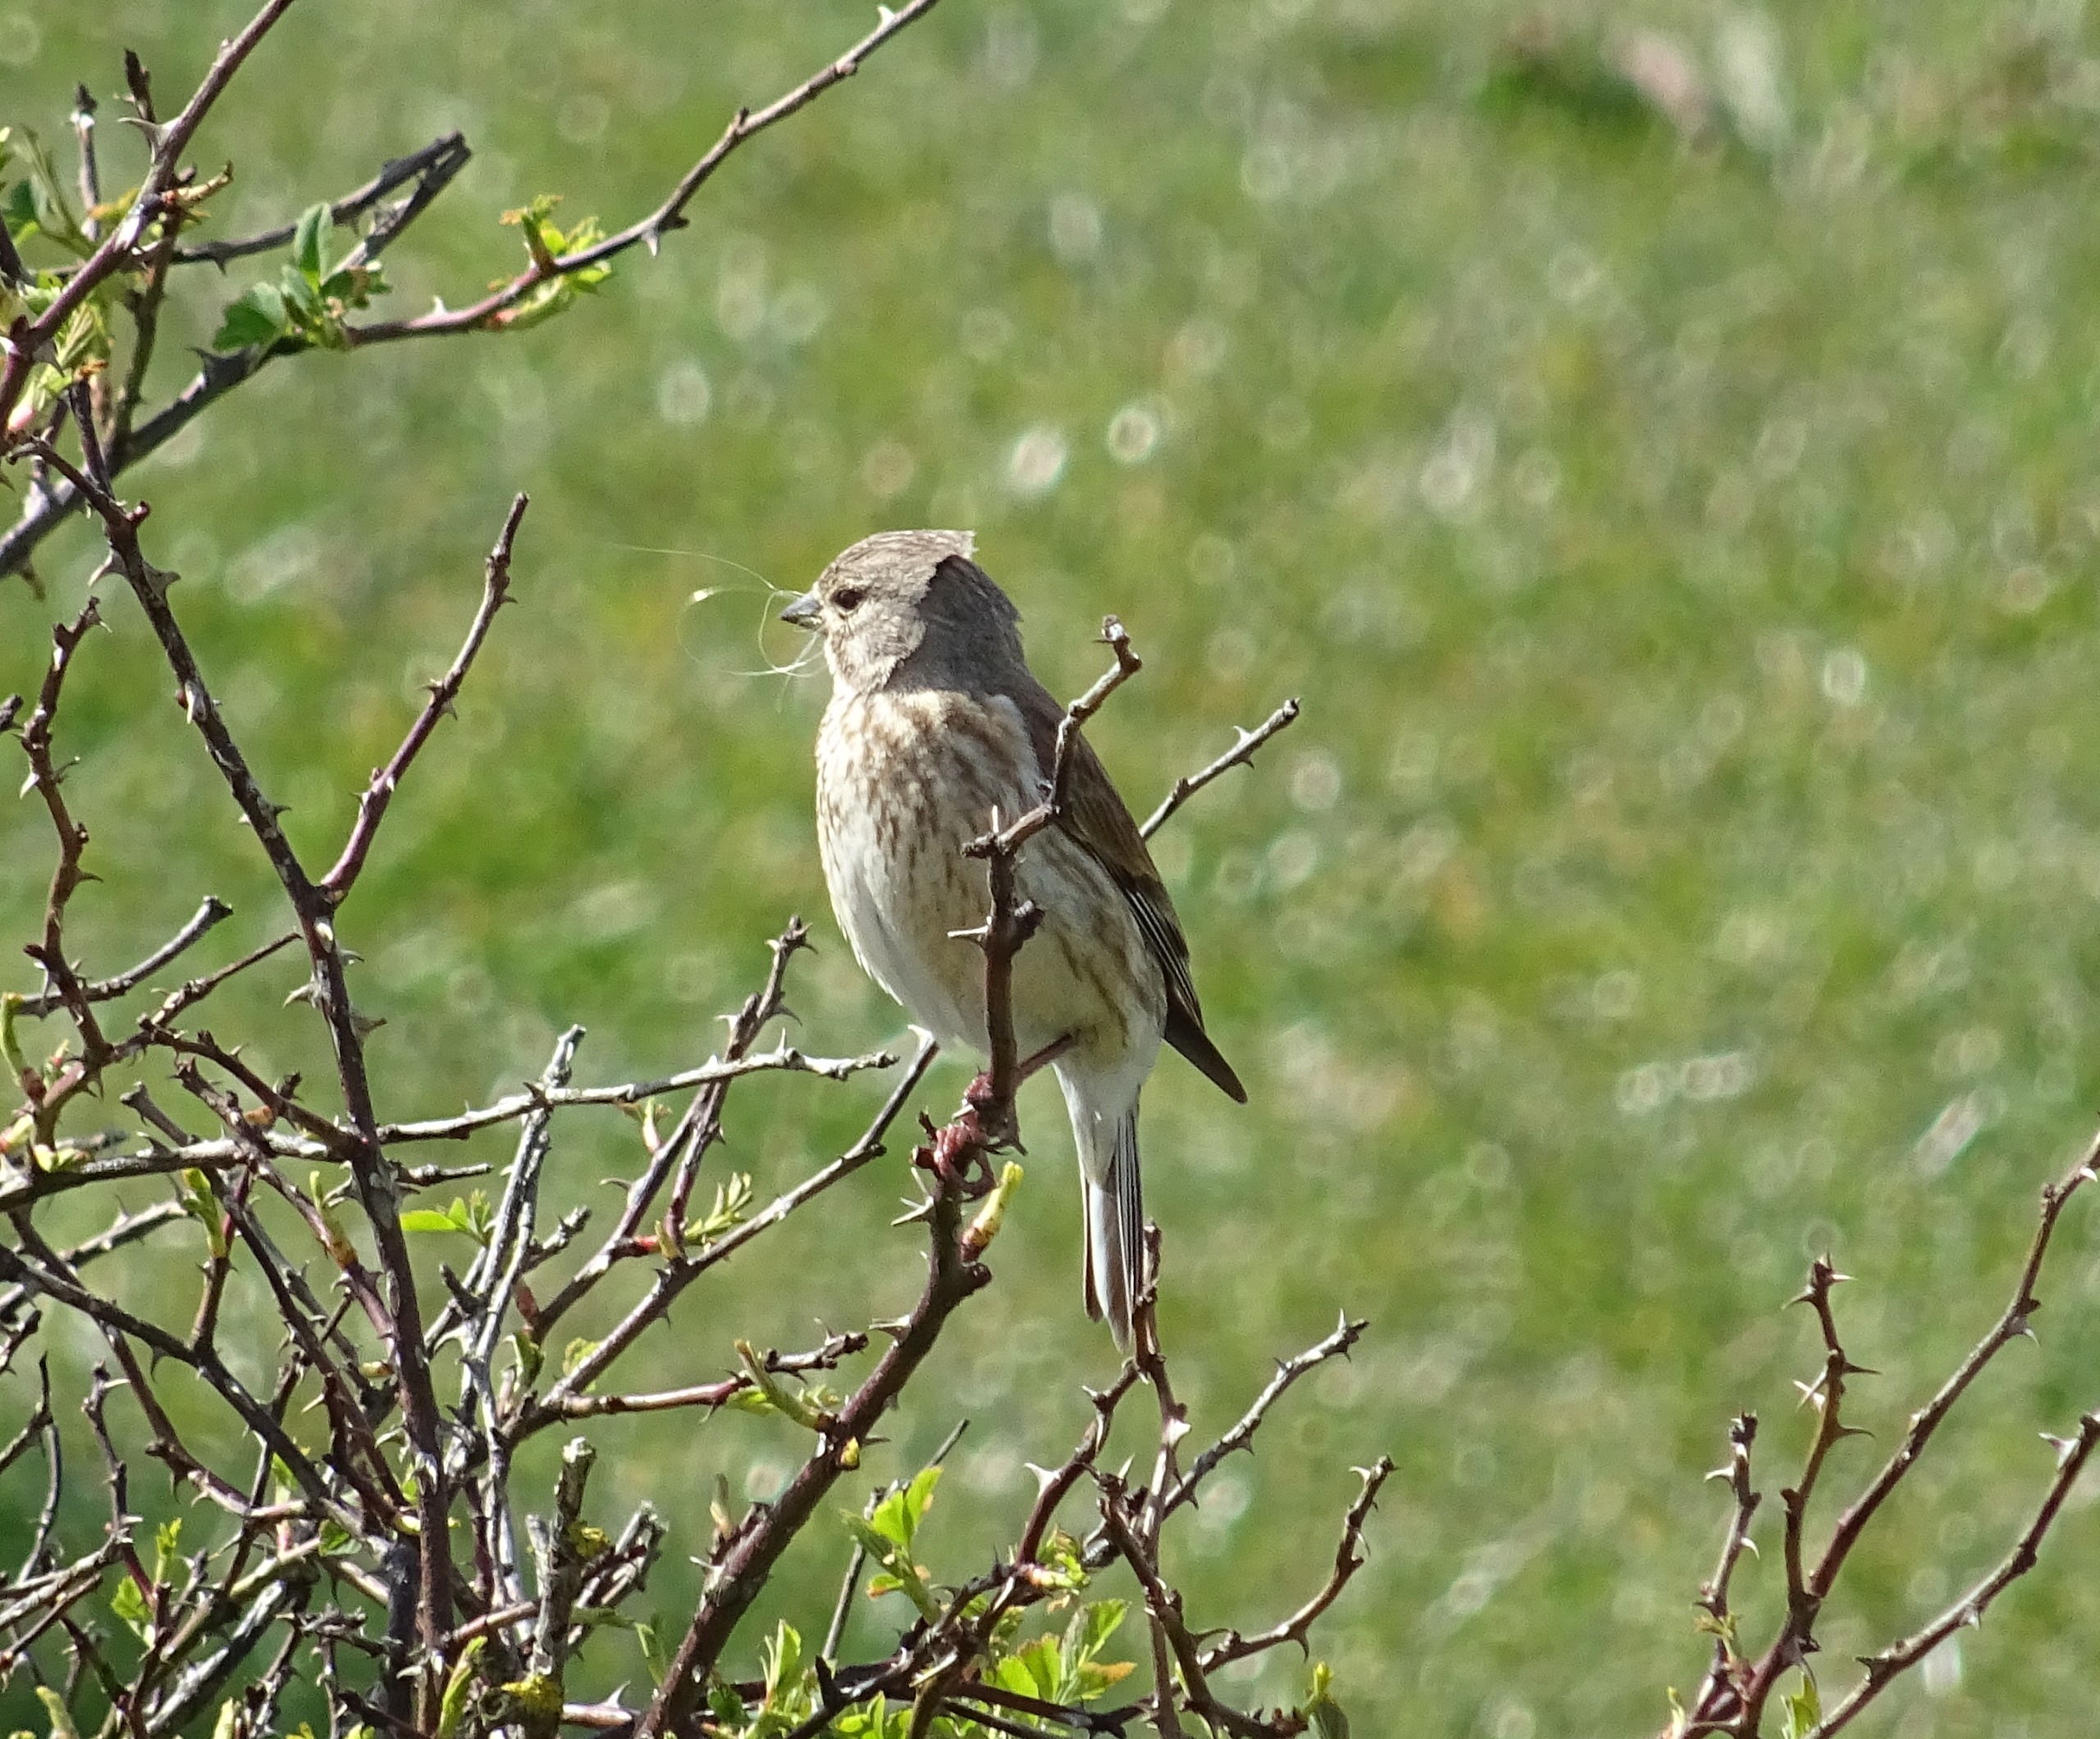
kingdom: Animalia
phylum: Chordata
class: Aves
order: Passeriformes
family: Fringillidae
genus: Linaria
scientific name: Linaria cannabina
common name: Tornirisk
